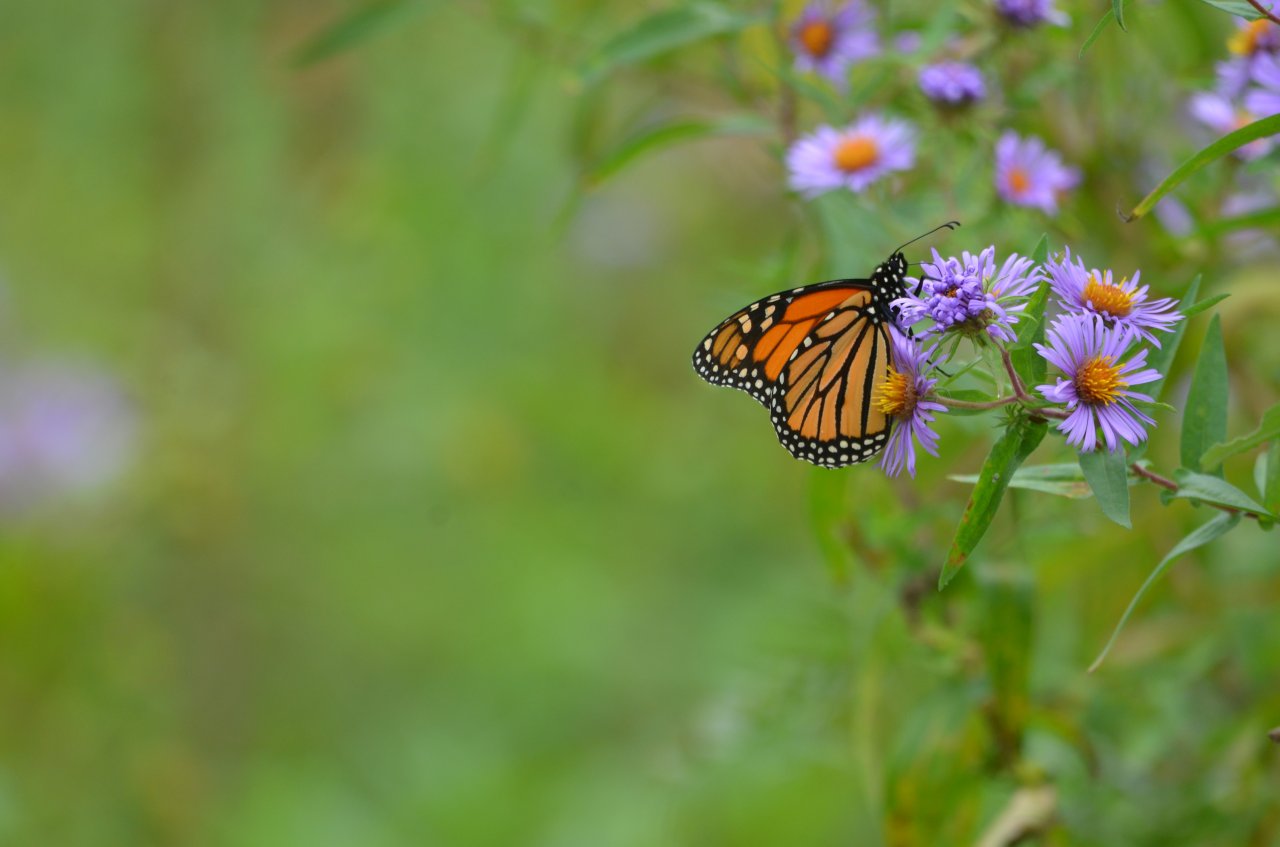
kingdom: Animalia
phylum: Arthropoda
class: Insecta
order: Lepidoptera
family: Nymphalidae
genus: Danaus
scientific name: Danaus plexippus
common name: Monarch
